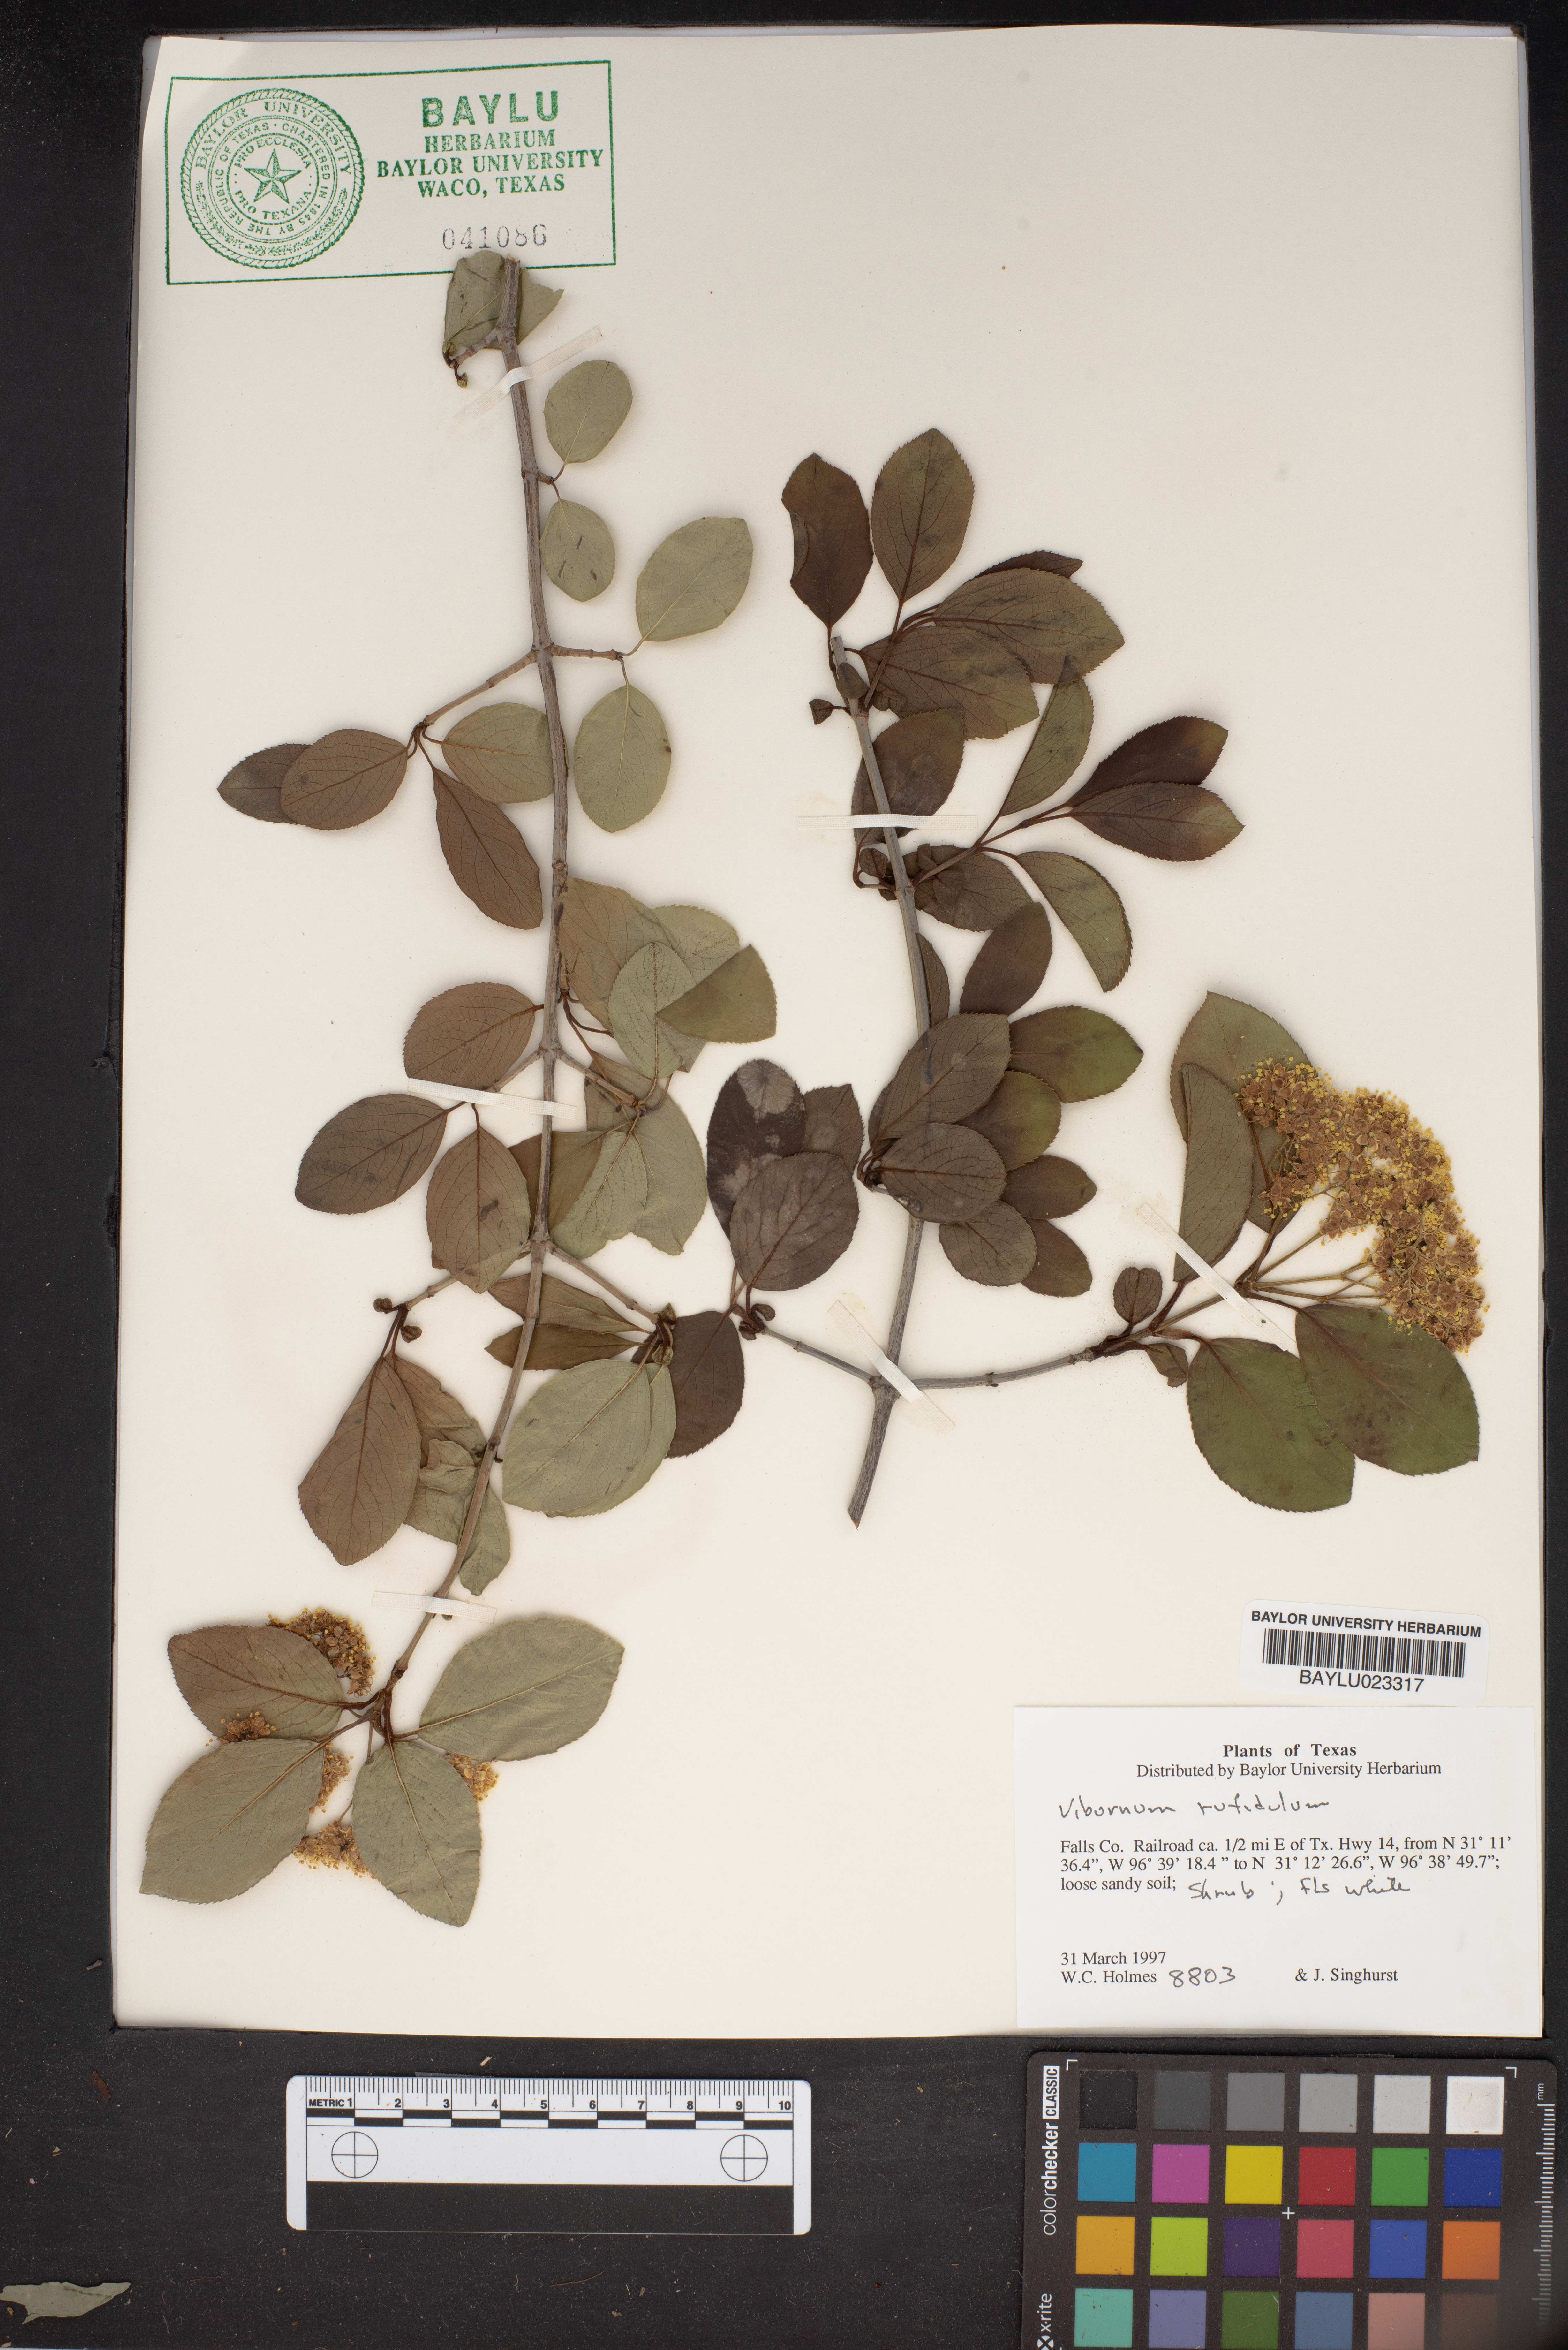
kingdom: Plantae
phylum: Tracheophyta
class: Magnoliopsida
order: Dipsacales
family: Viburnaceae
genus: Viburnum
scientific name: Viburnum rufidulum
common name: Blue haw
